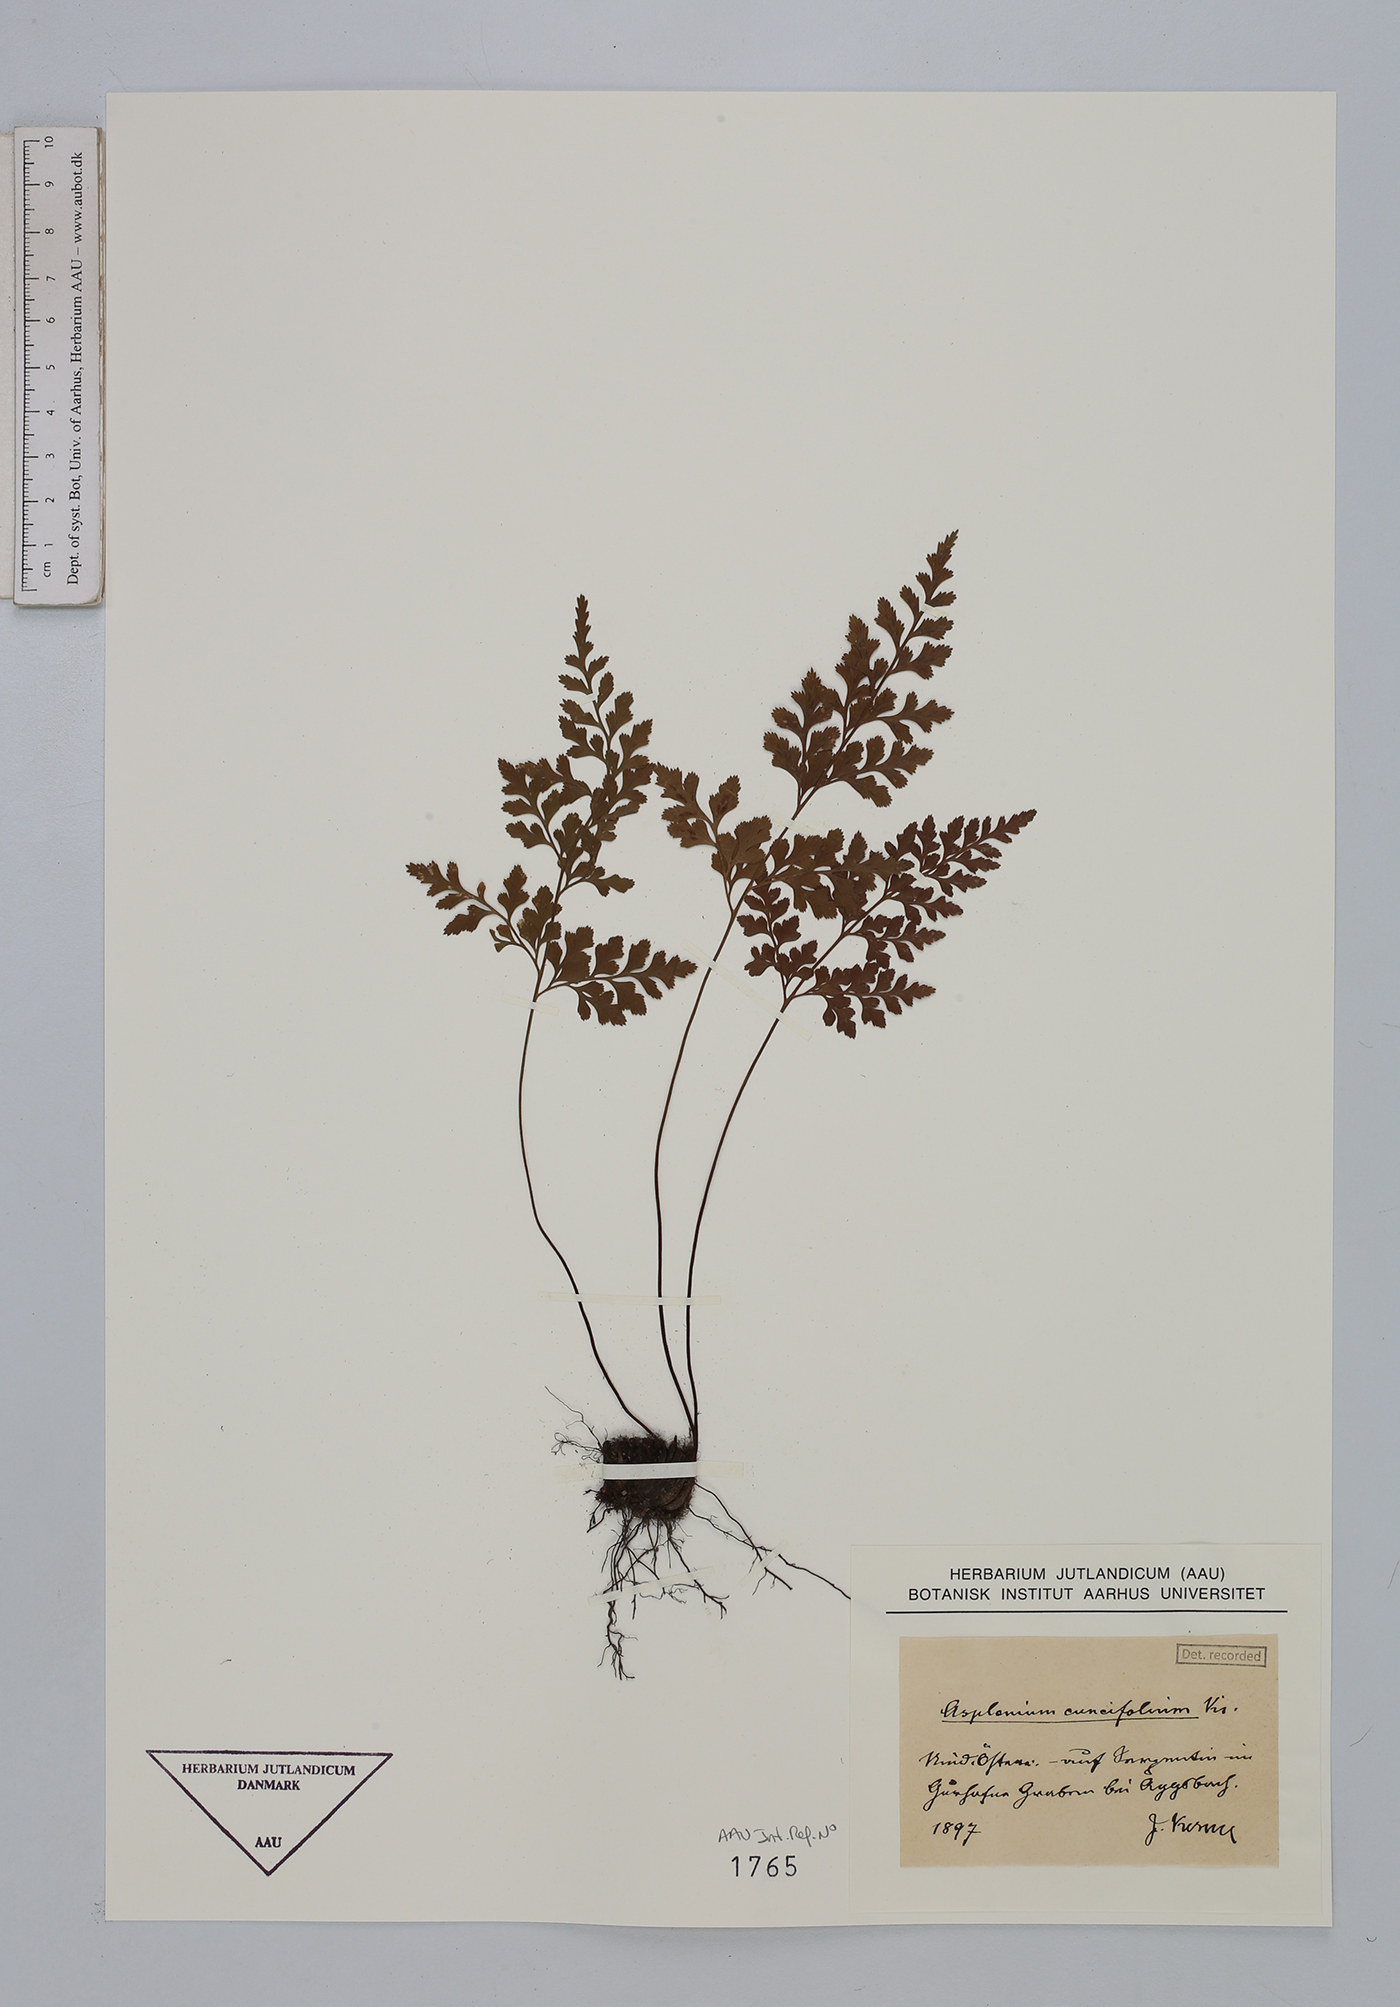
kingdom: Plantae
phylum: Tracheophyta
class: Polypodiopsida
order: Polypodiales
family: Aspleniaceae
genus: Asplenium
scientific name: Asplenium cuneifolium
